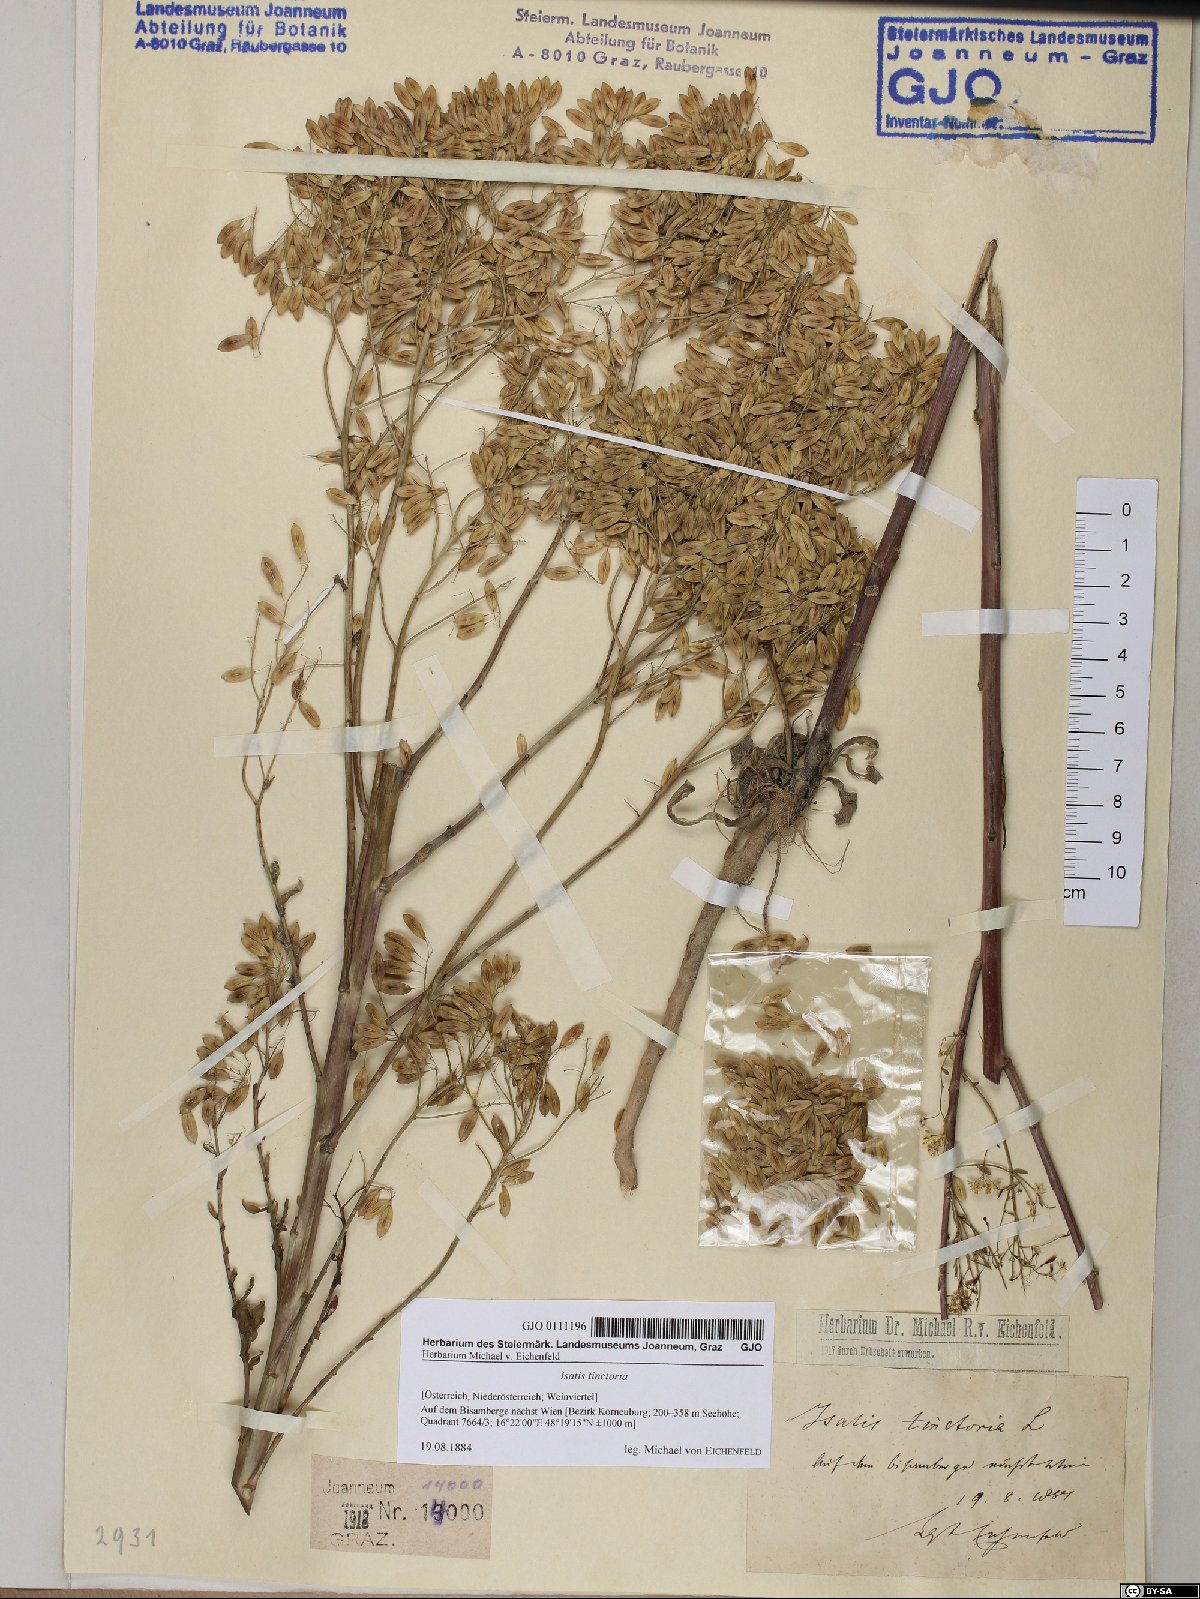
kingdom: Plantae
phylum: Tracheophyta
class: Magnoliopsida
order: Brassicales
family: Brassicaceae
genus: Isatis
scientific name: Isatis tinctoria
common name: Woad
